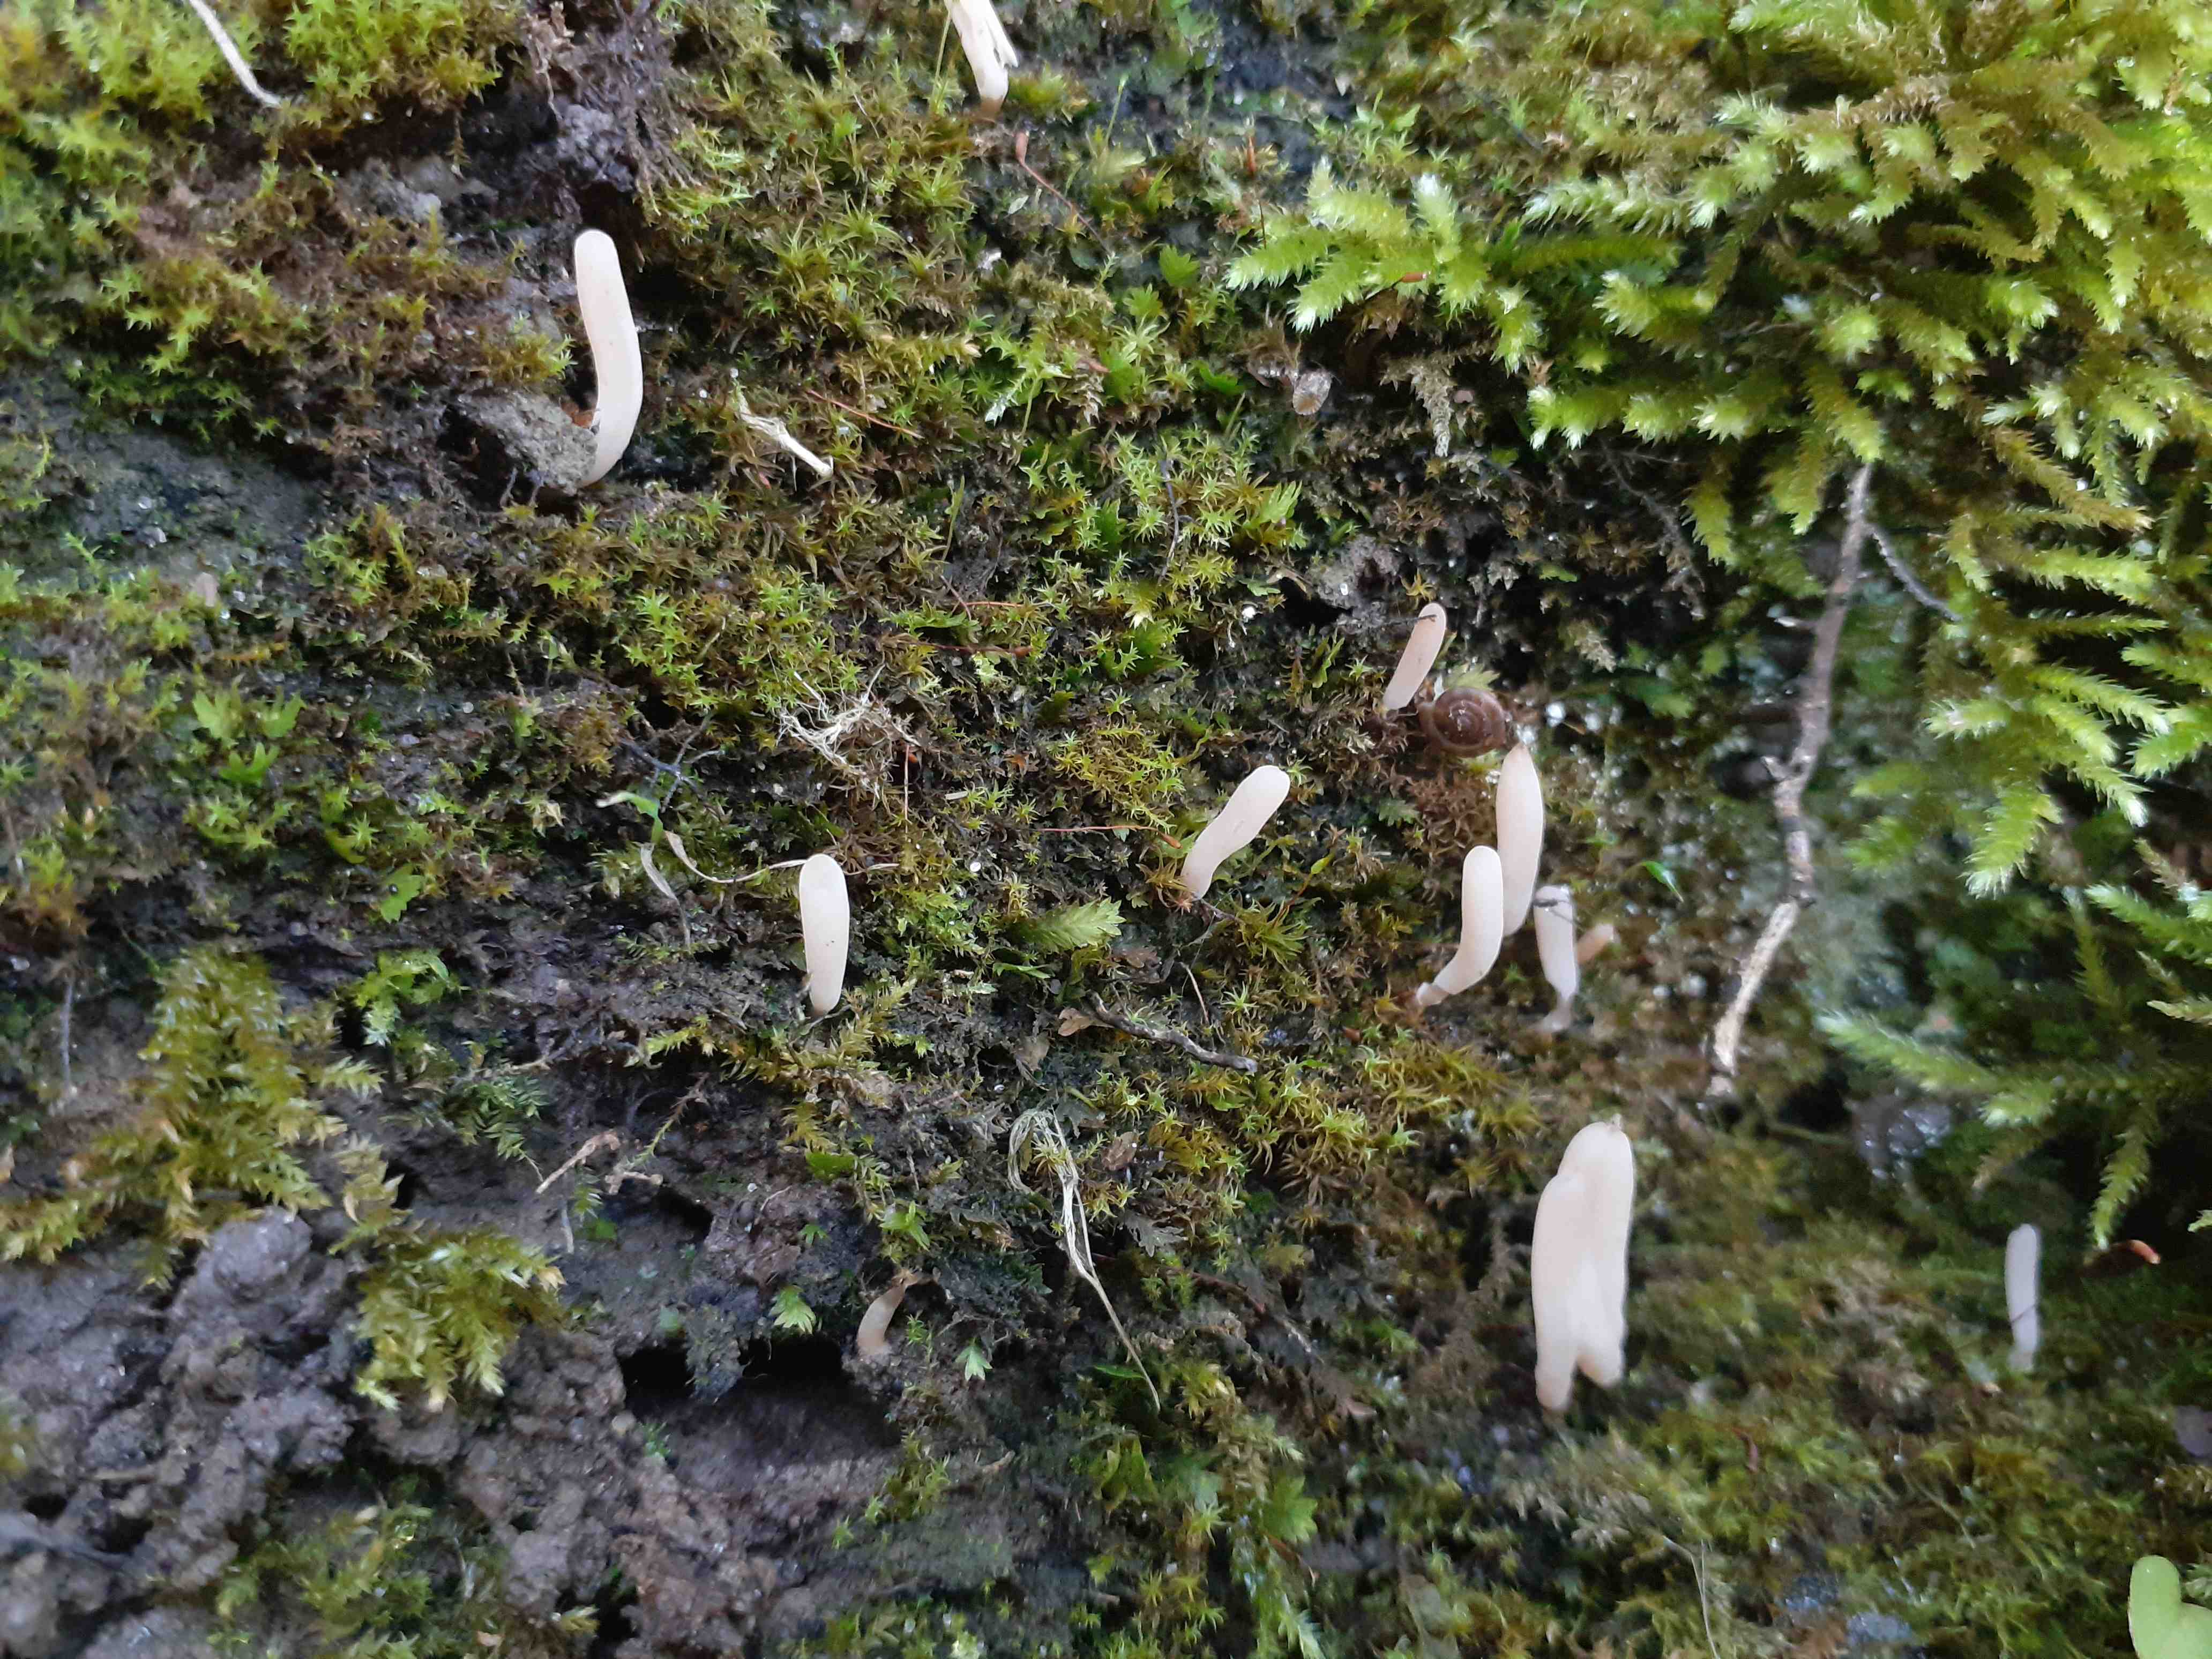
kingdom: Fungi
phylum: Basidiomycota
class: Agaricomycetes
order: Agaricales
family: Clavariaceae
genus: Clavaria
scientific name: Clavaria tenuipes
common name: isabellafarvet køllesvamp
